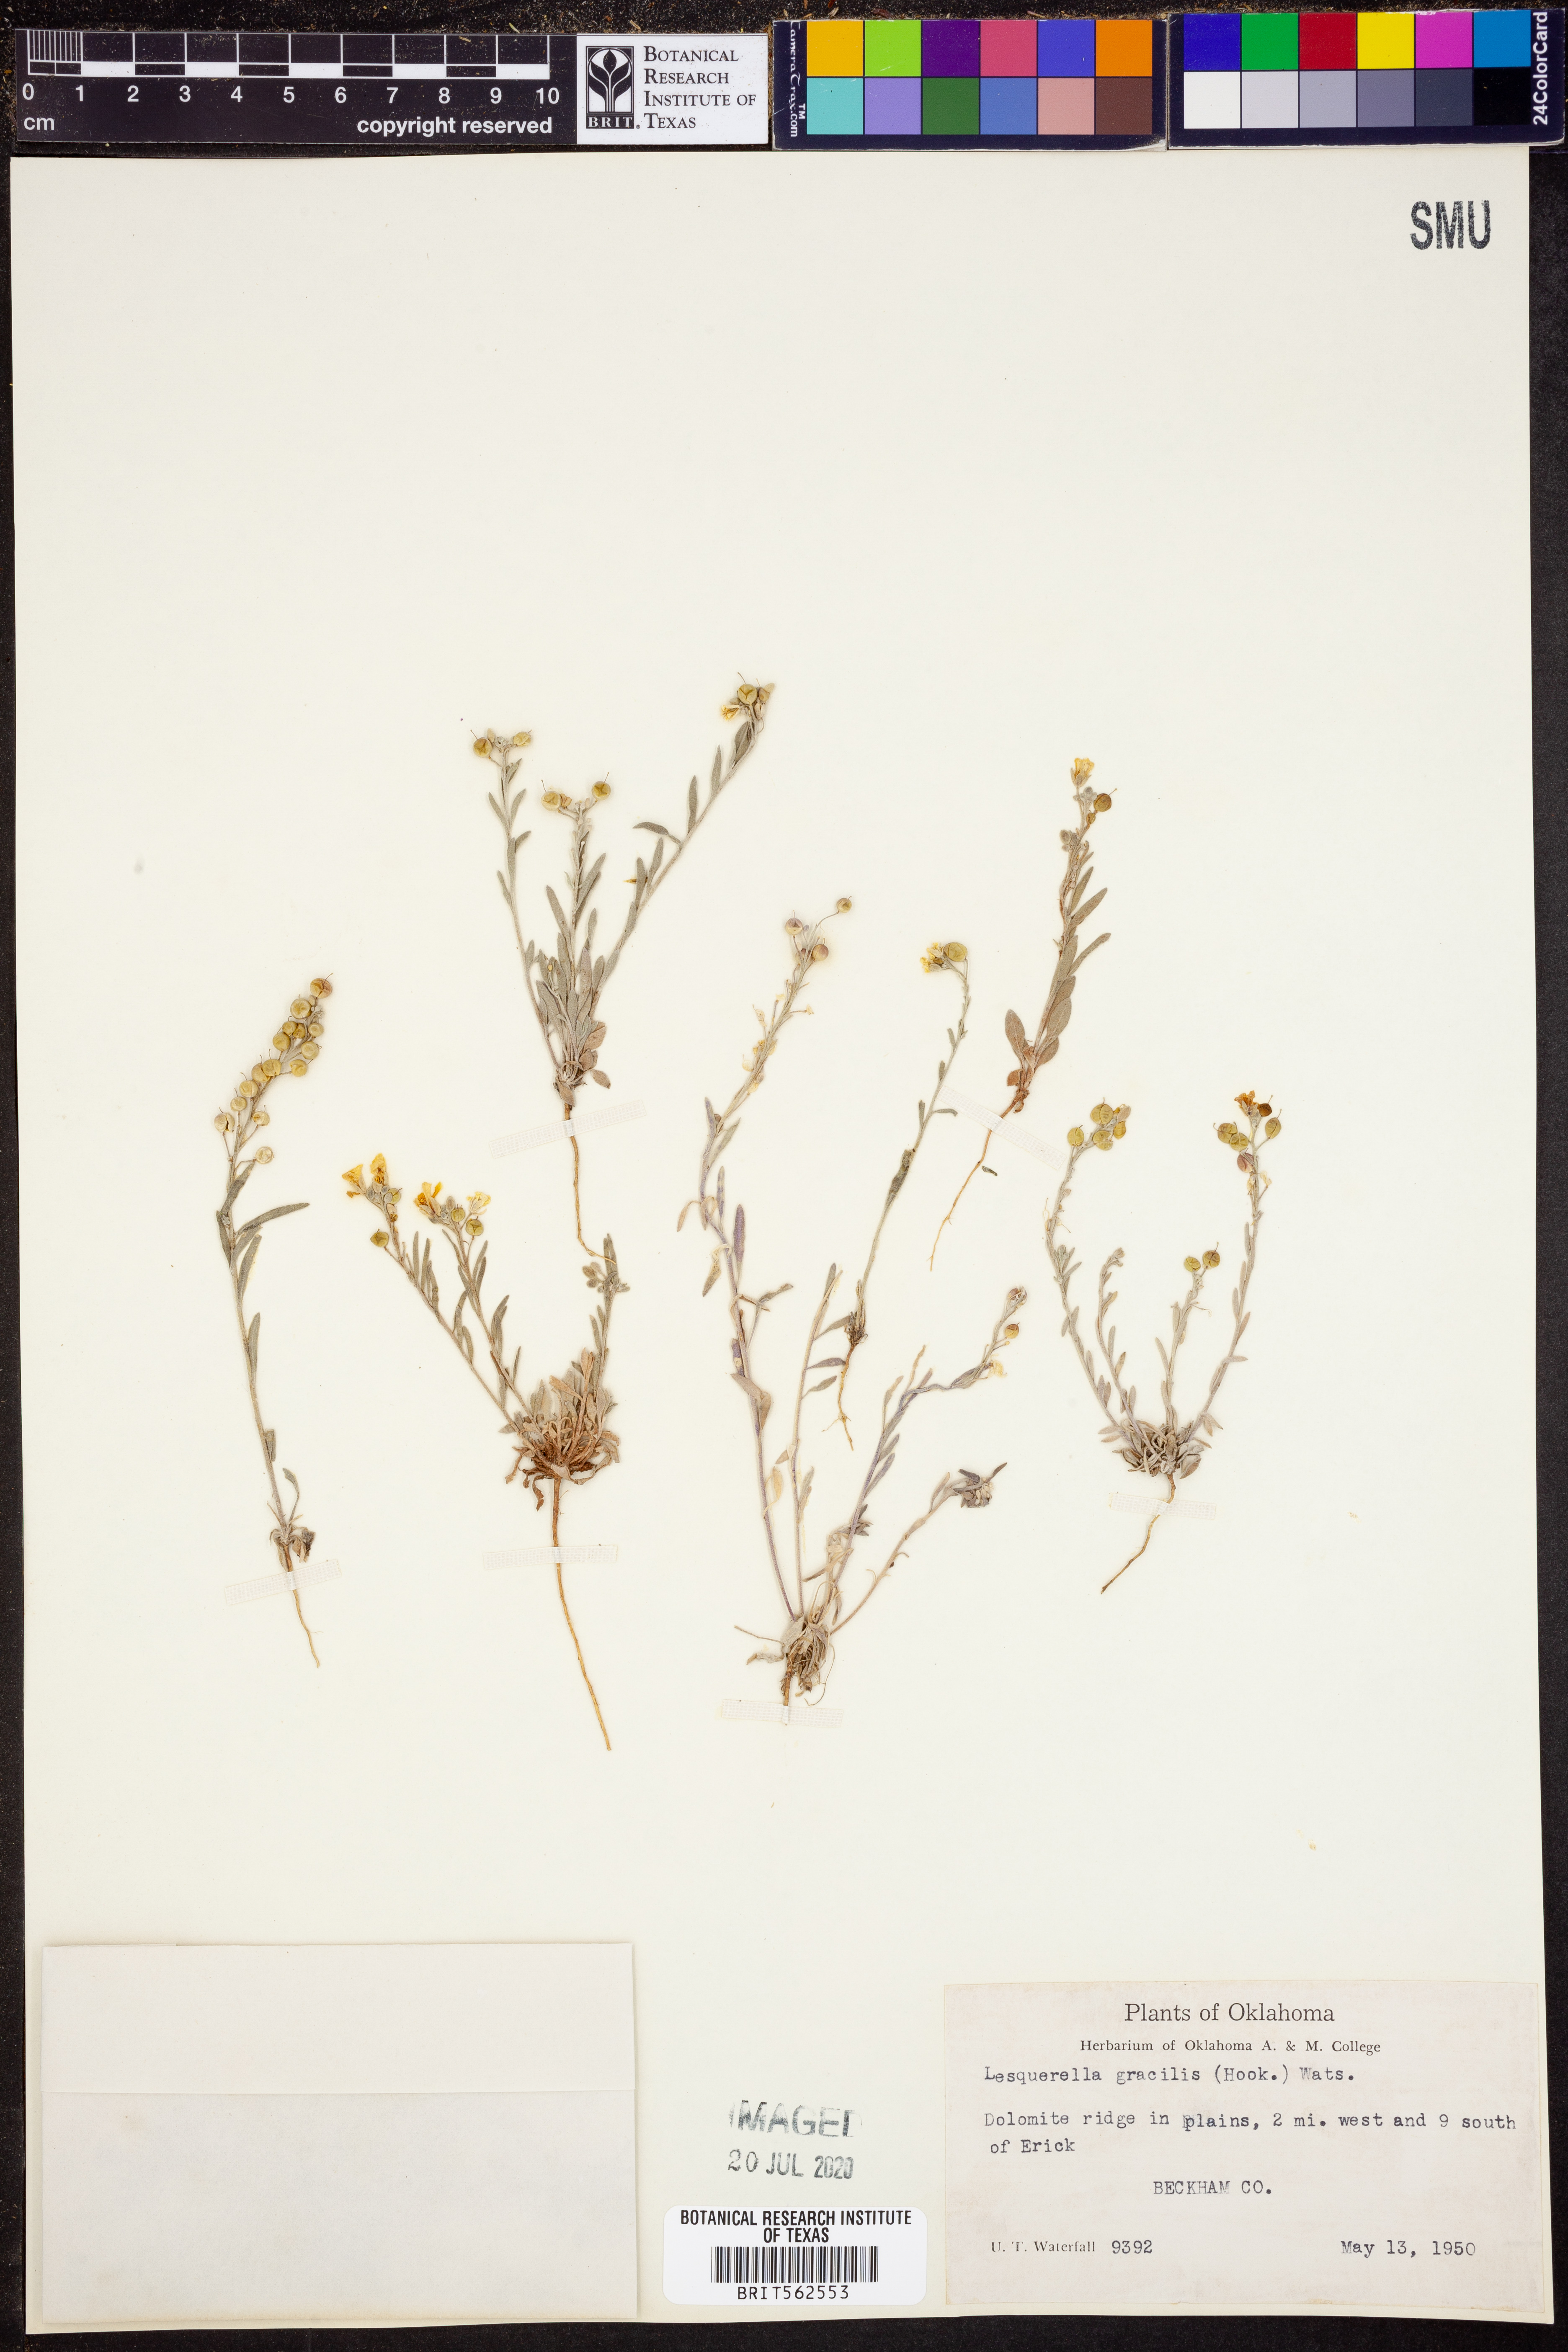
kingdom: Plantae
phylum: Tracheophyta
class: Magnoliopsida
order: Brassicales
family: Brassicaceae
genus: Physaria
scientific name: Physaria gracilis
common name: Spreading bladderpod
